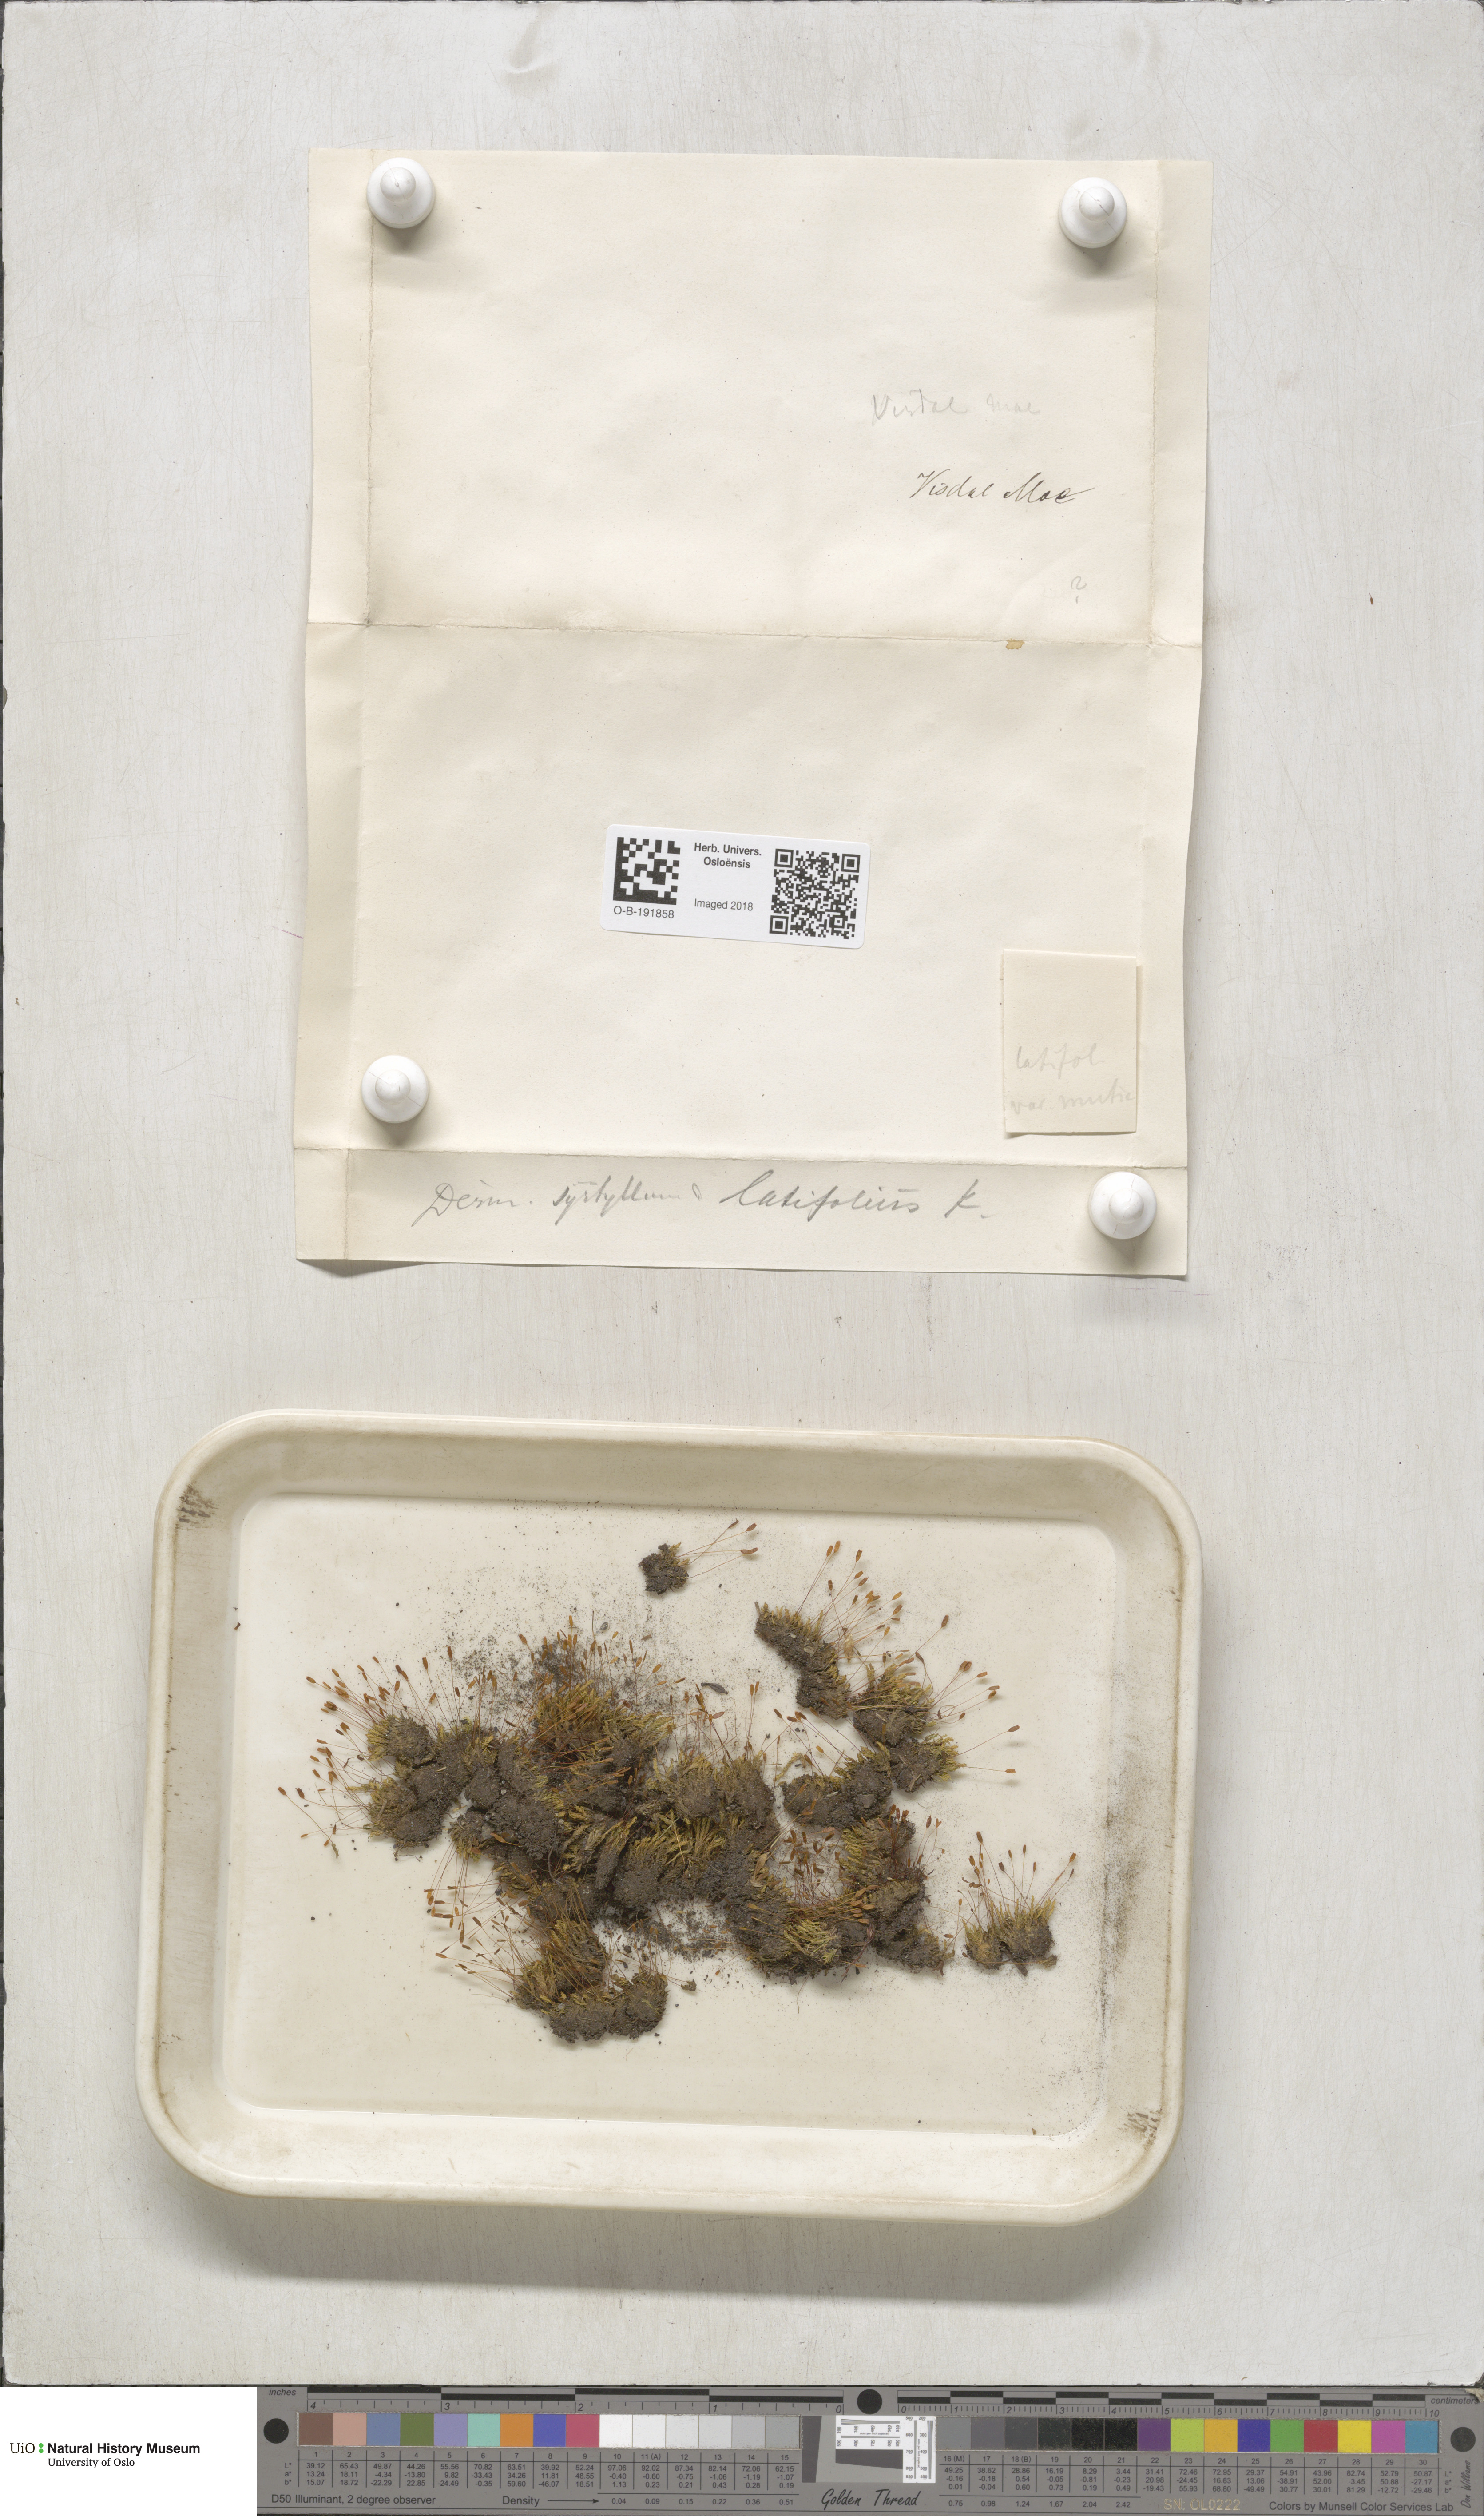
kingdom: Plantae
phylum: Bryophyta
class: Bryopsida
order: Pottiales
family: Pottiaceae
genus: Tortula
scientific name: Tortula hoppeana
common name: Hoppe's screw moss
